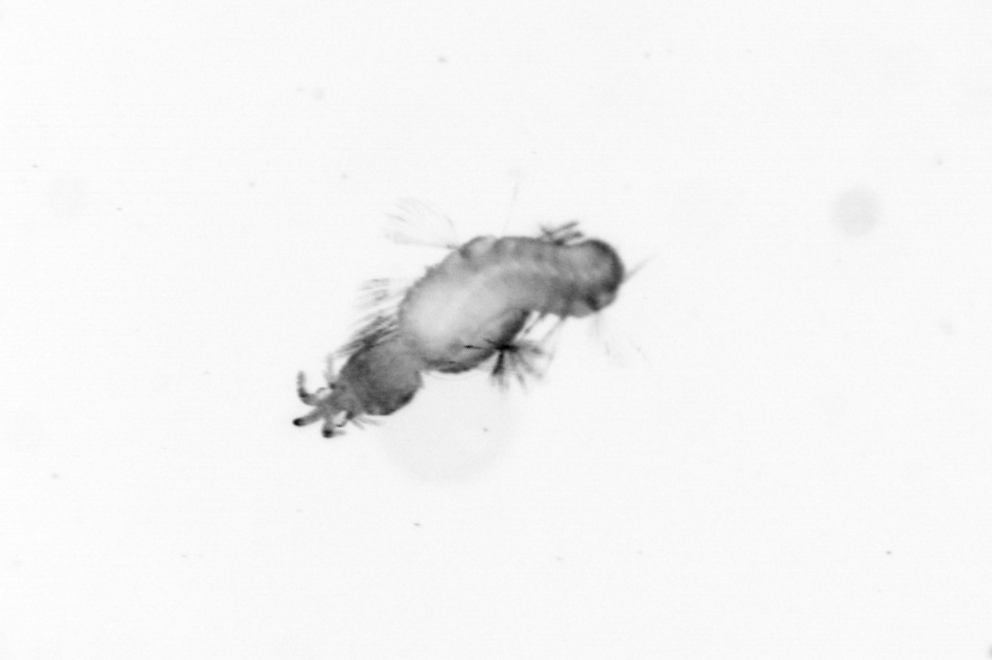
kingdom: Animalia
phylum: Annelida
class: Polychaeta
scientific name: Polychaeta
